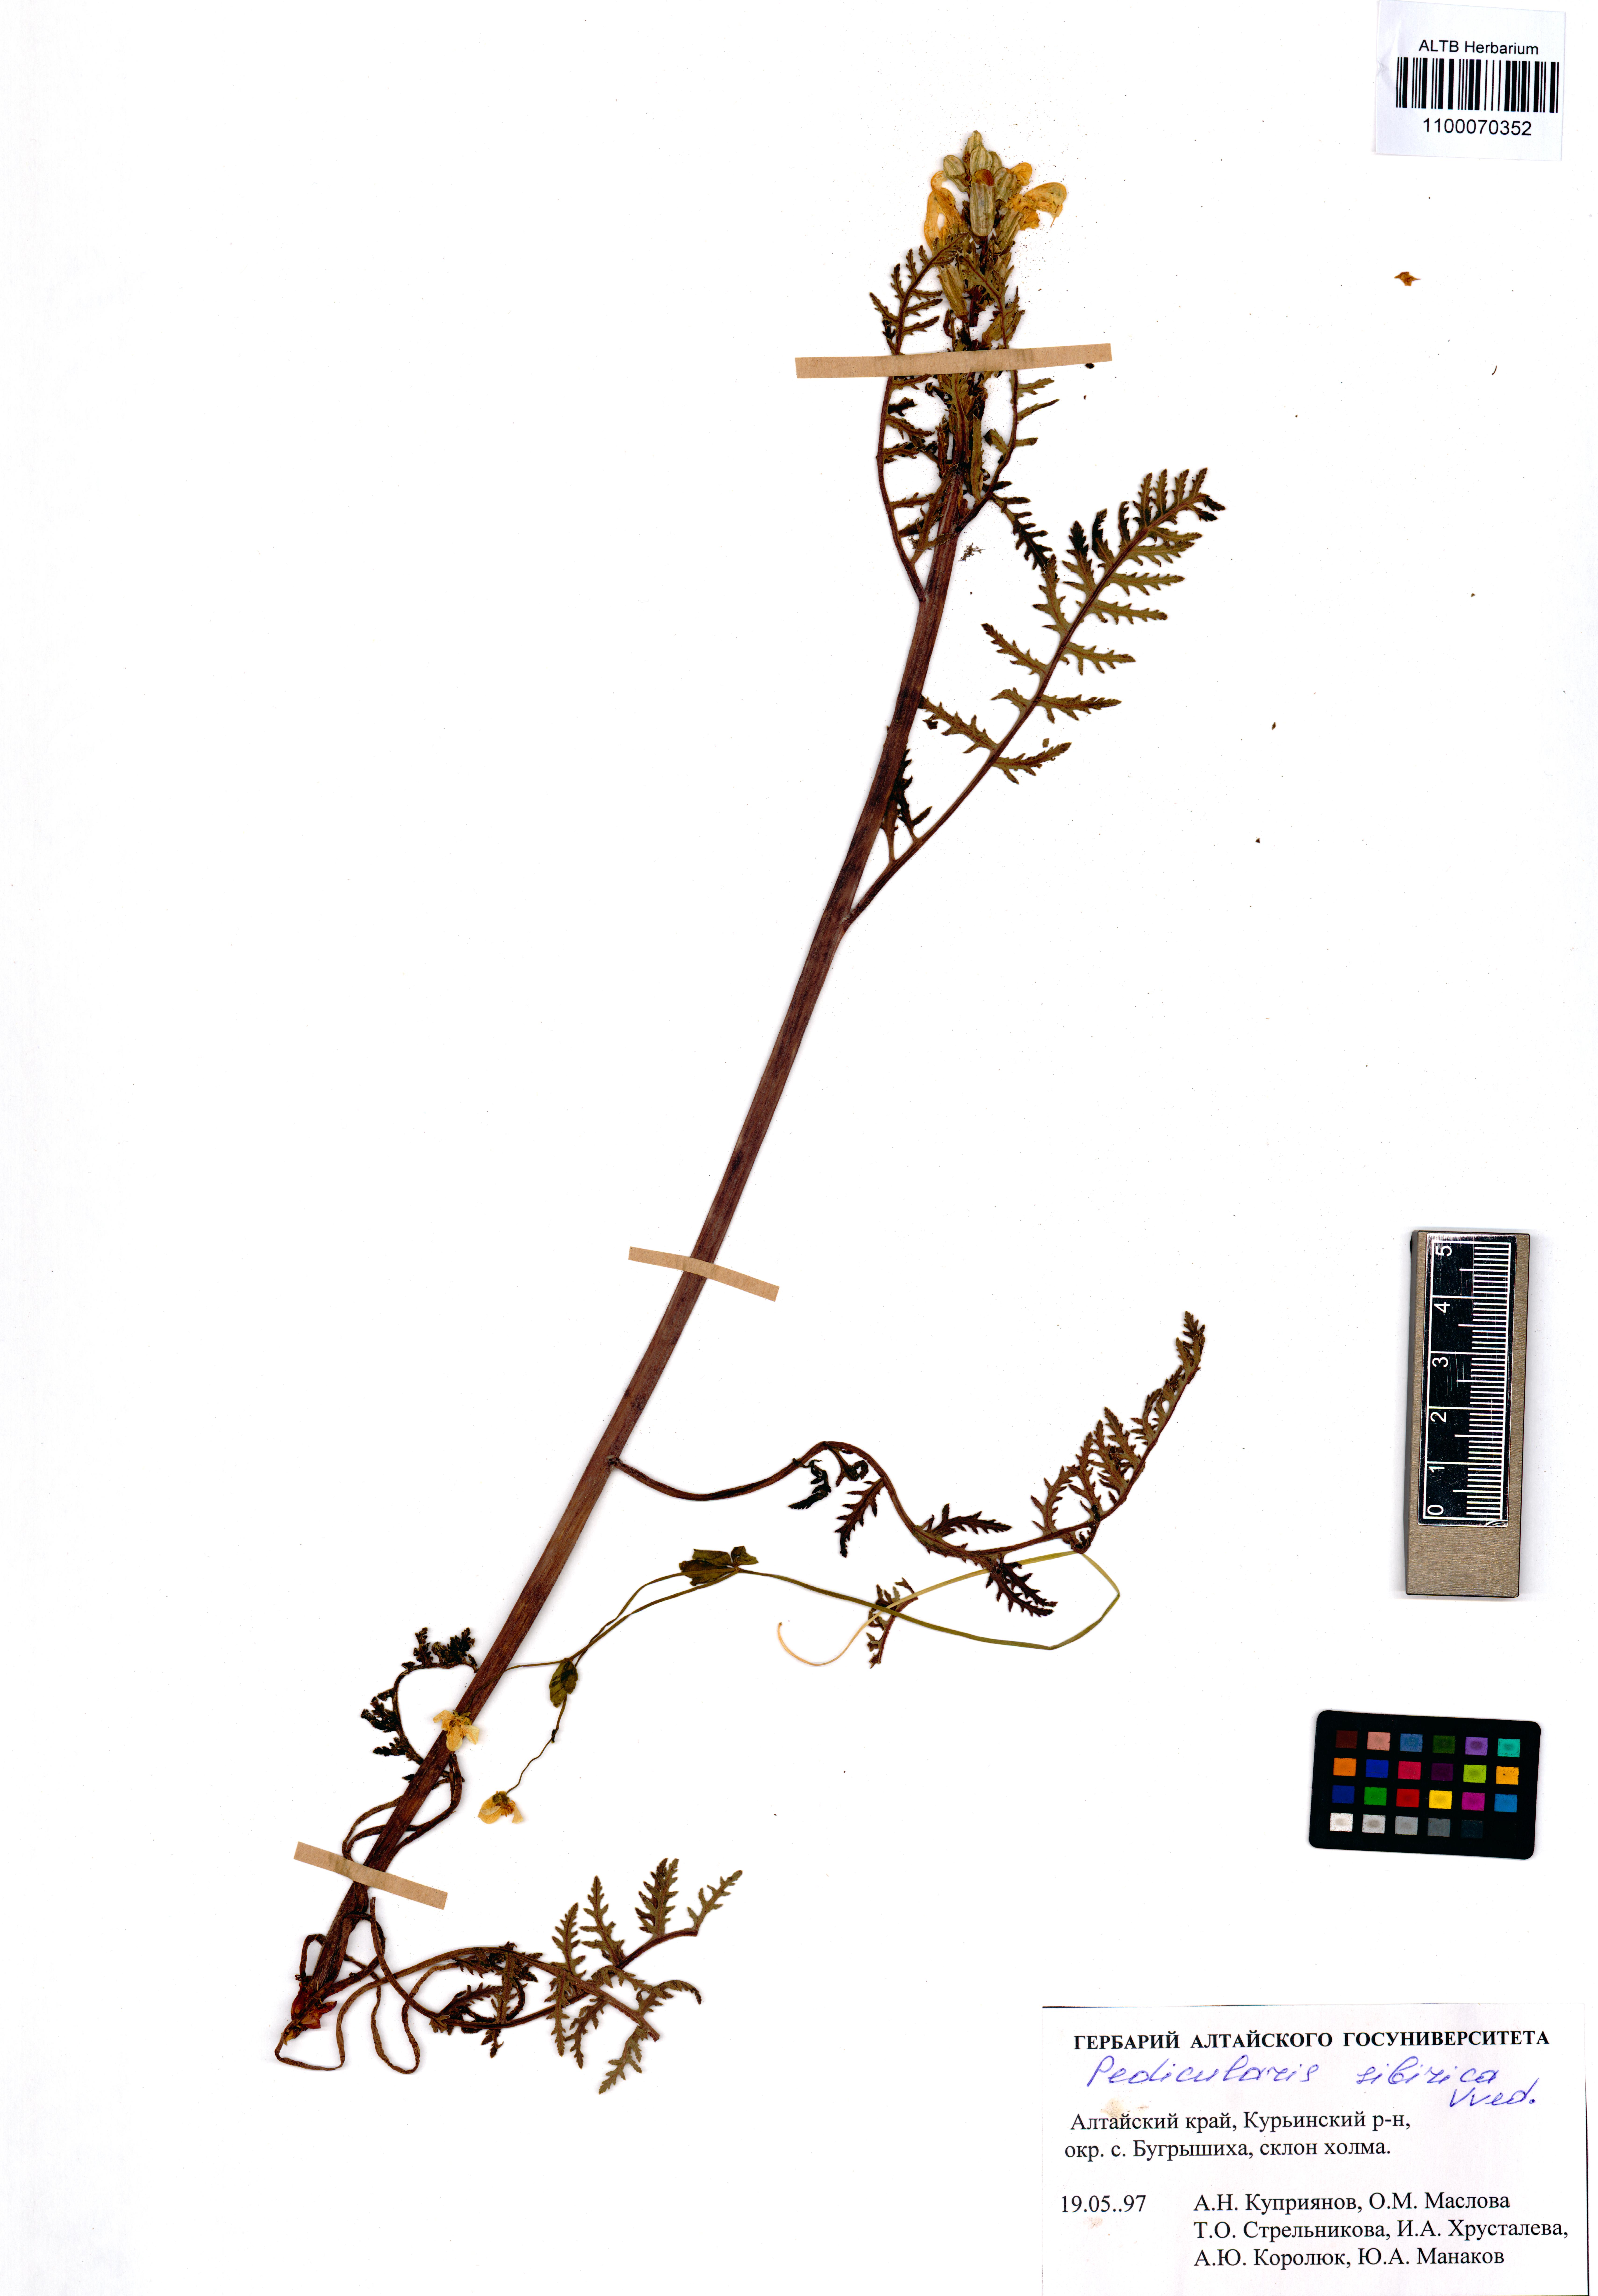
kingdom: Plantae
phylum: Tracheophyta
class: Magnoliopsida
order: Lamiales
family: Orobanchaceae
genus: Pedicularis
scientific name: Pedicularis sibirica
